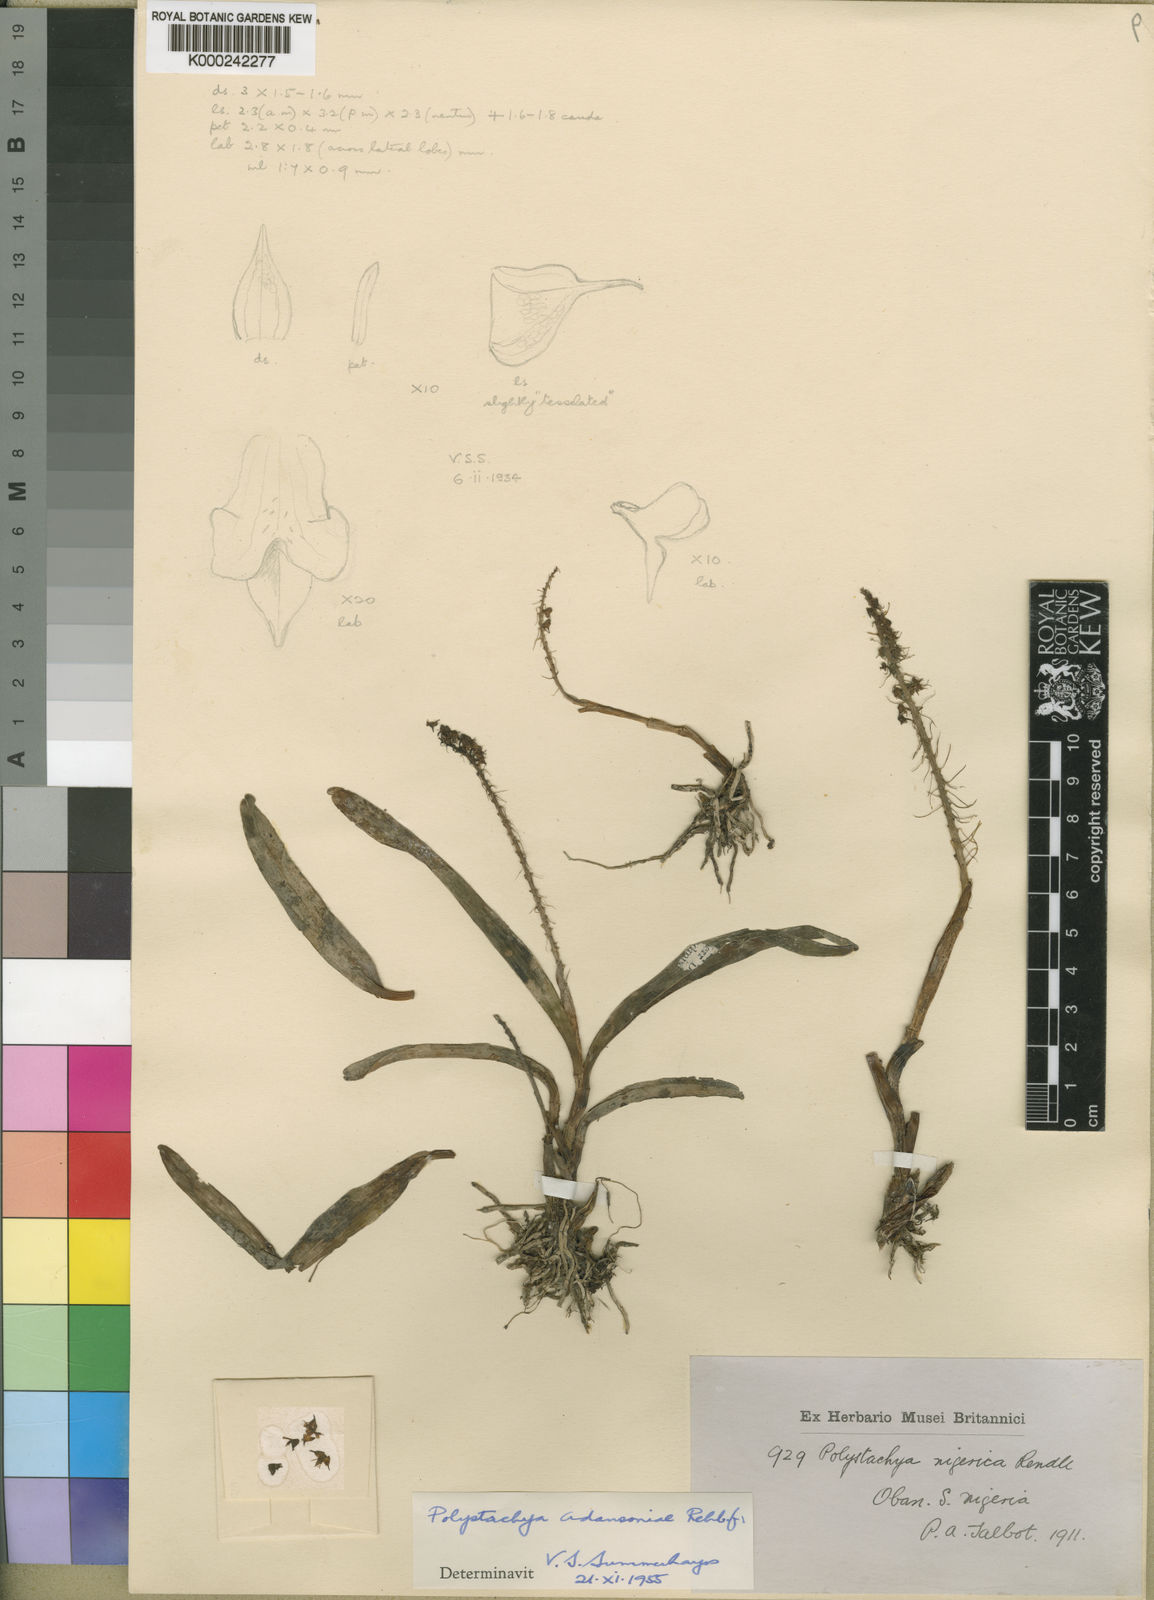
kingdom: Plantae
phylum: Tracheophyta
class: Liliopsida
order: Asparagales
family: Orchidaceae
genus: Polystachya
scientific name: Polystachya adansoniae
